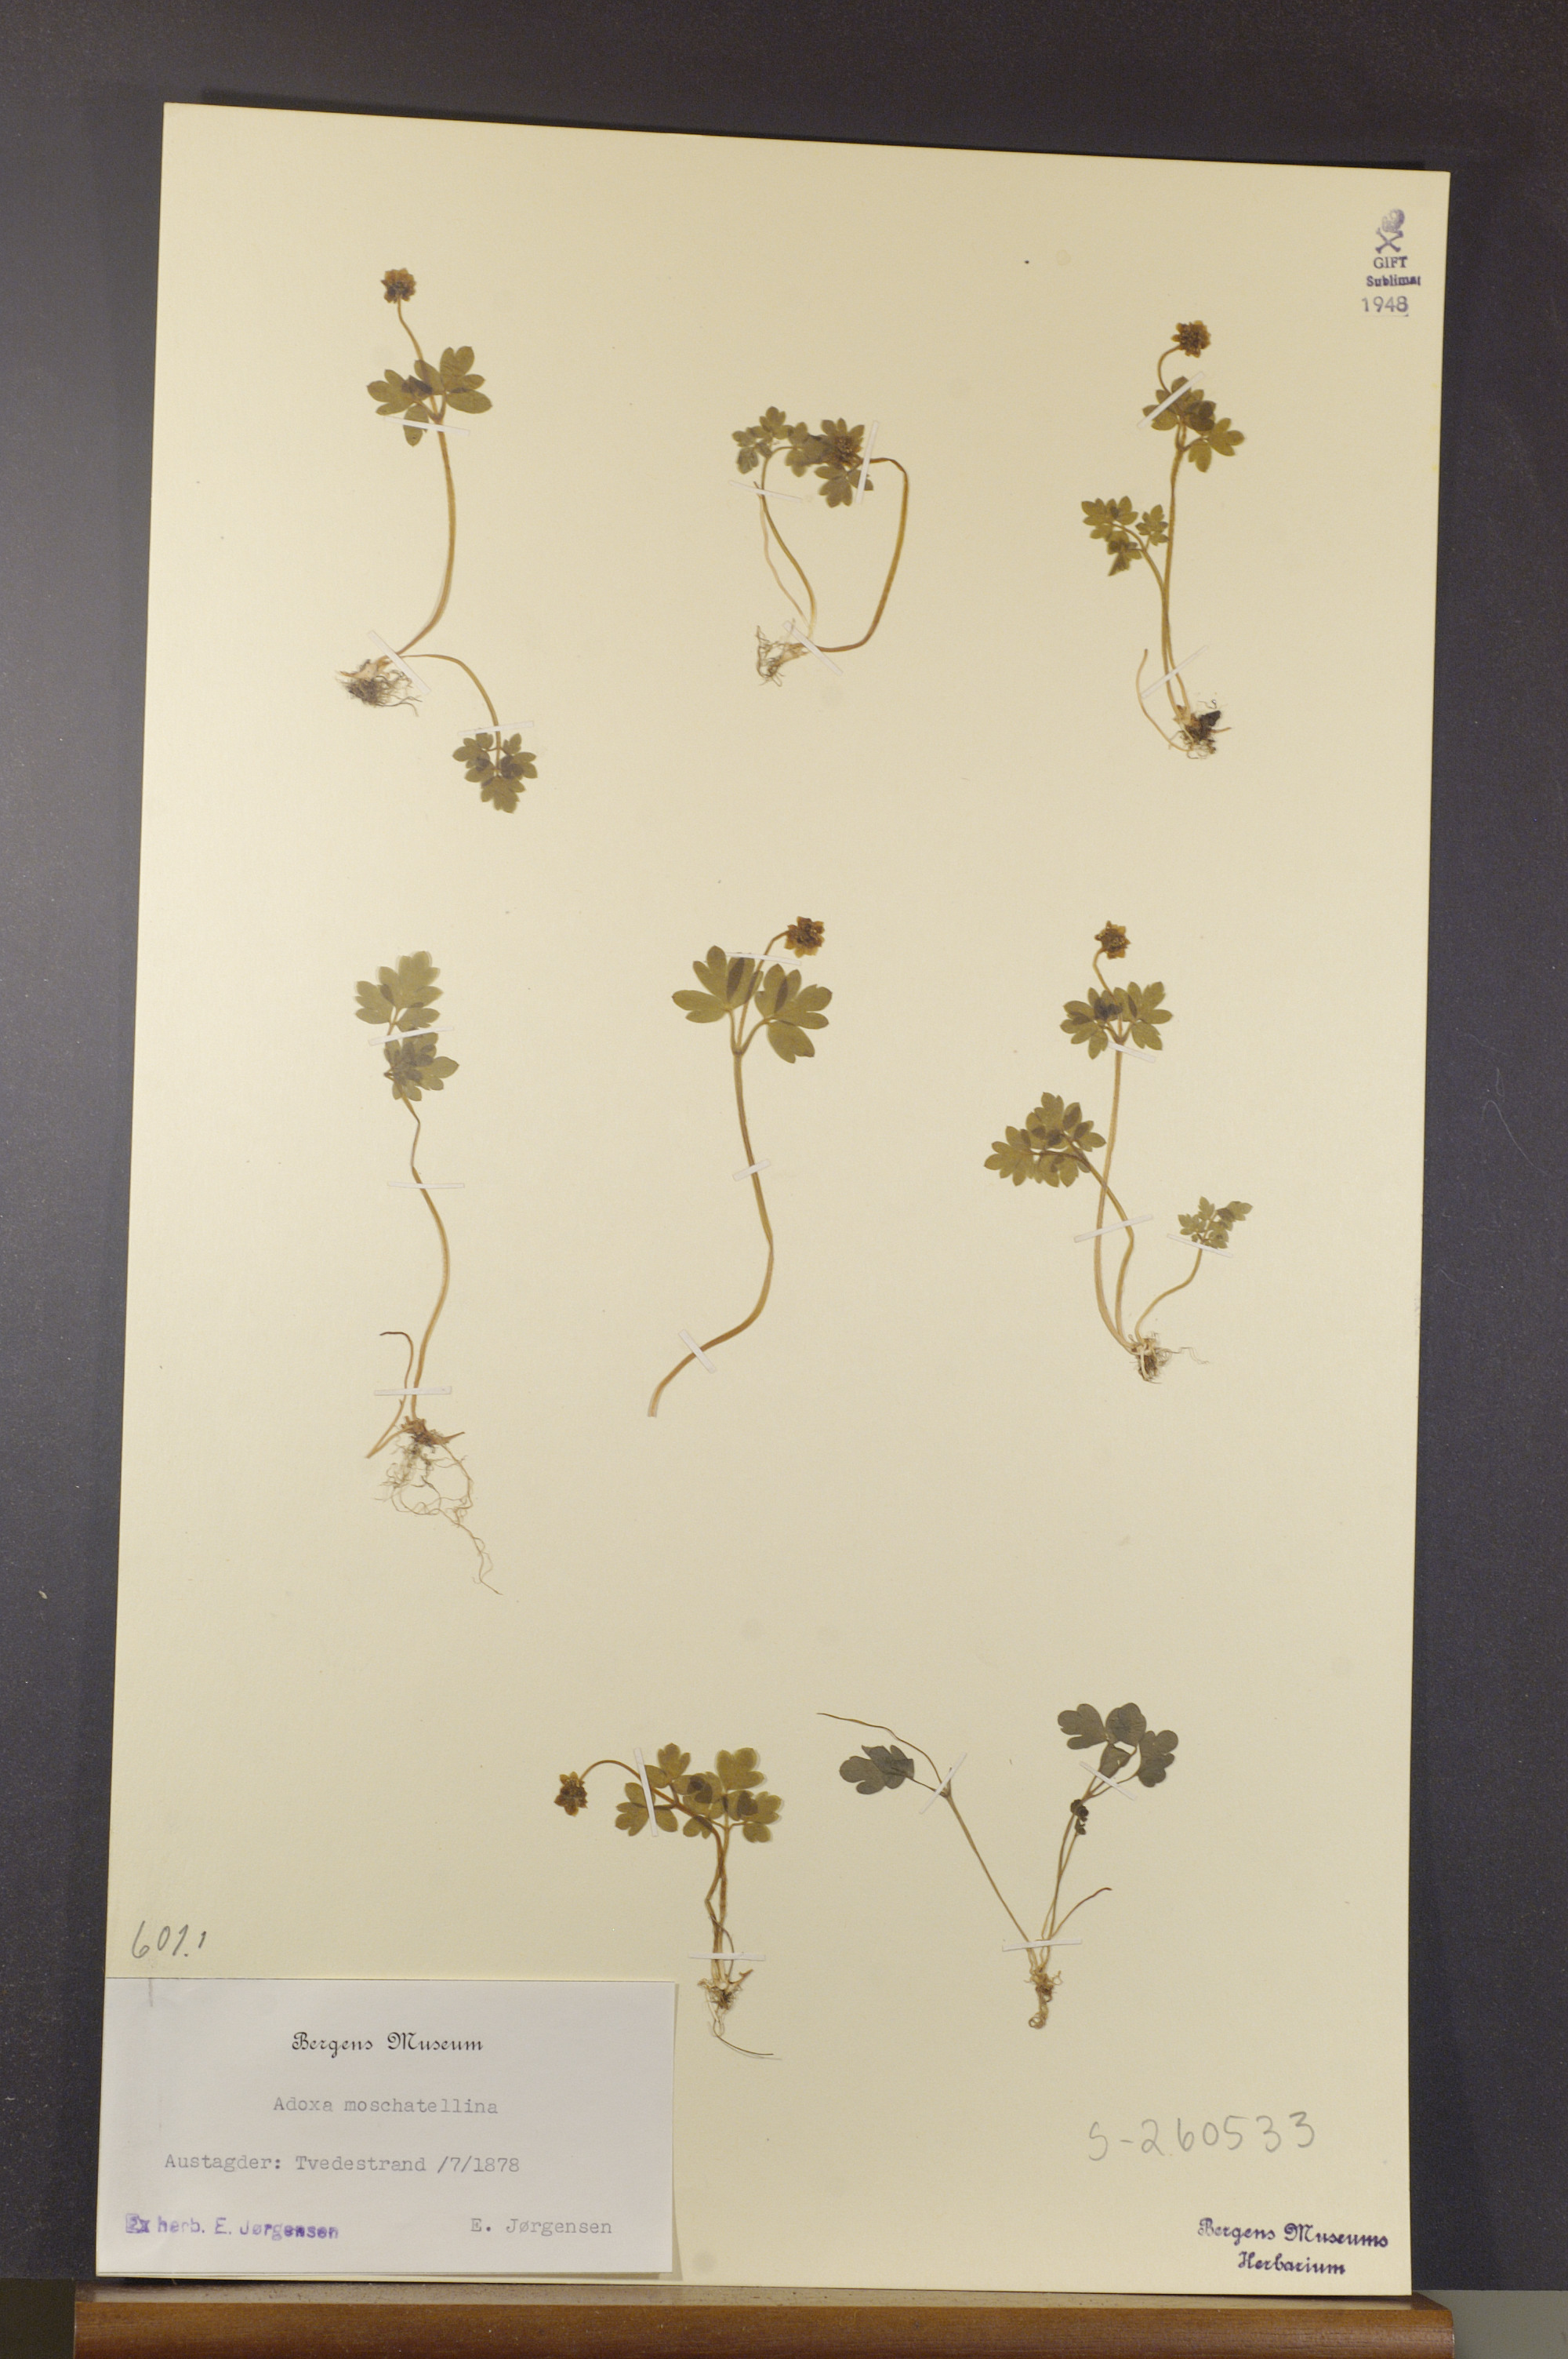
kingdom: Plantae
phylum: Tracheophyta
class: Magnoliopsida
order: Dipsacales
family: Viburnaceae
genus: Adoxa
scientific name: Adoxa moschatellina
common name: Moschatel
